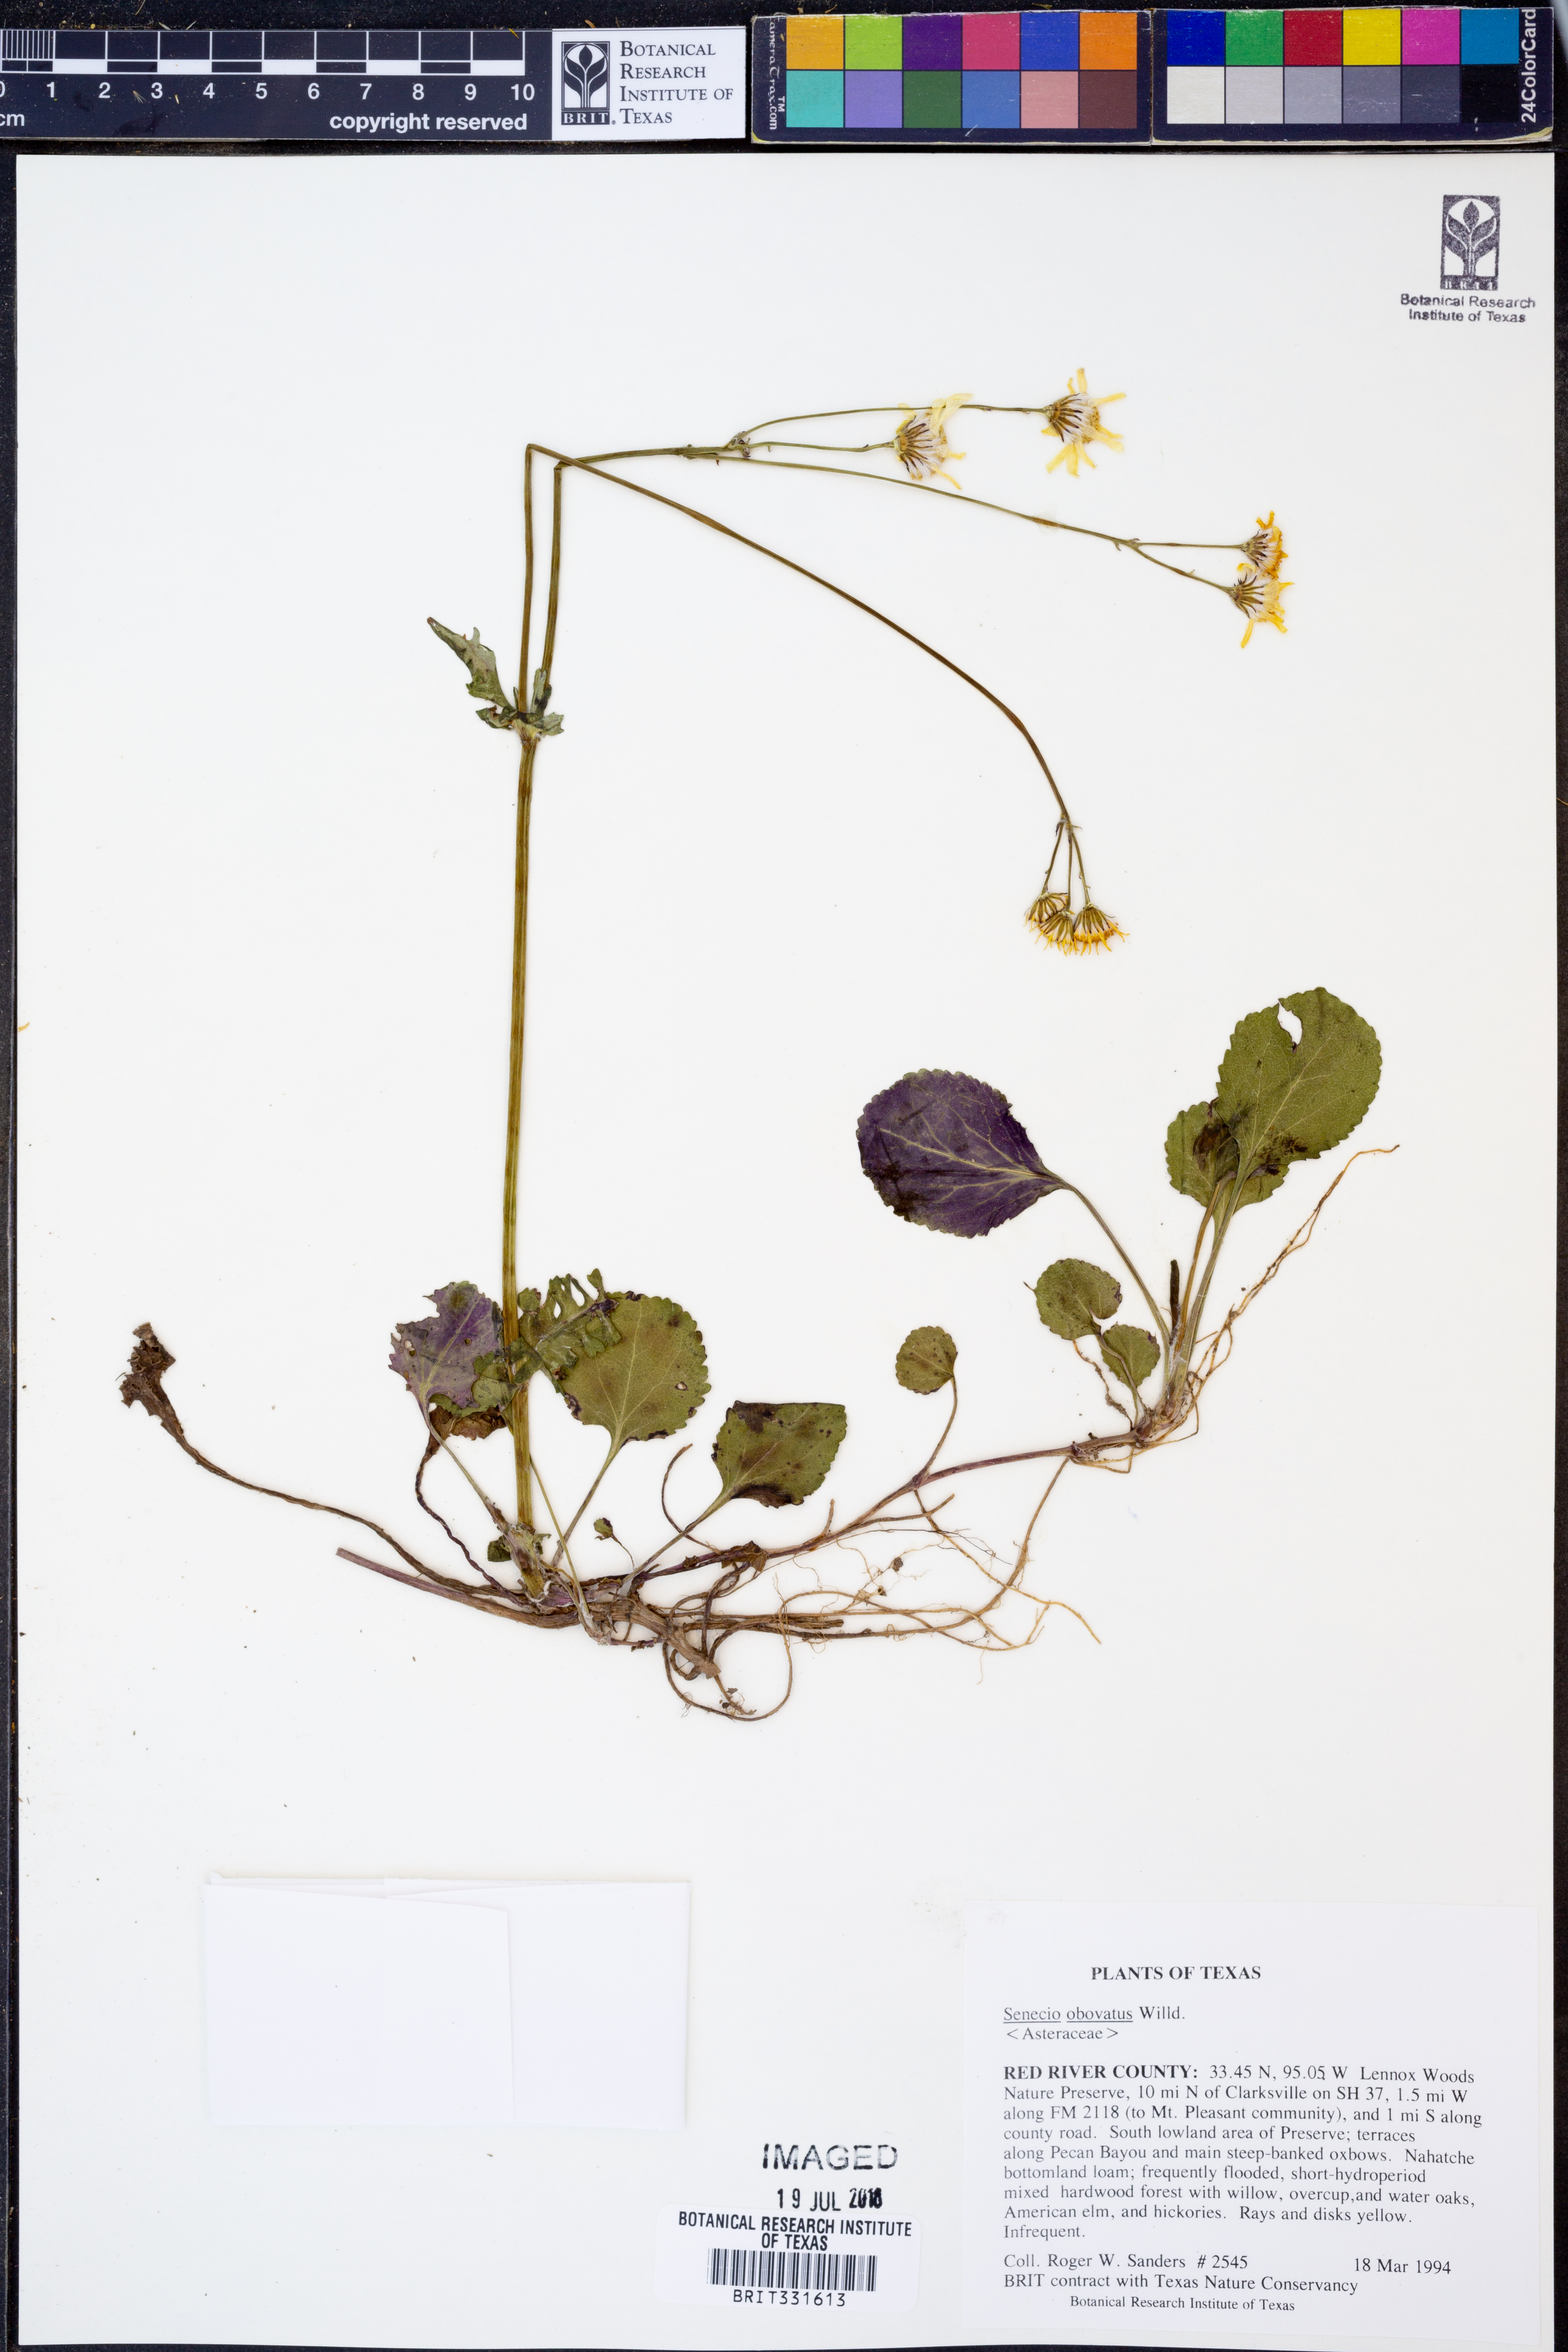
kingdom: Plantae
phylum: Tracheophyta
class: Magnoliopsida
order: Asterales
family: Asteraceae
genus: Senecio
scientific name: Senecio provincialis
